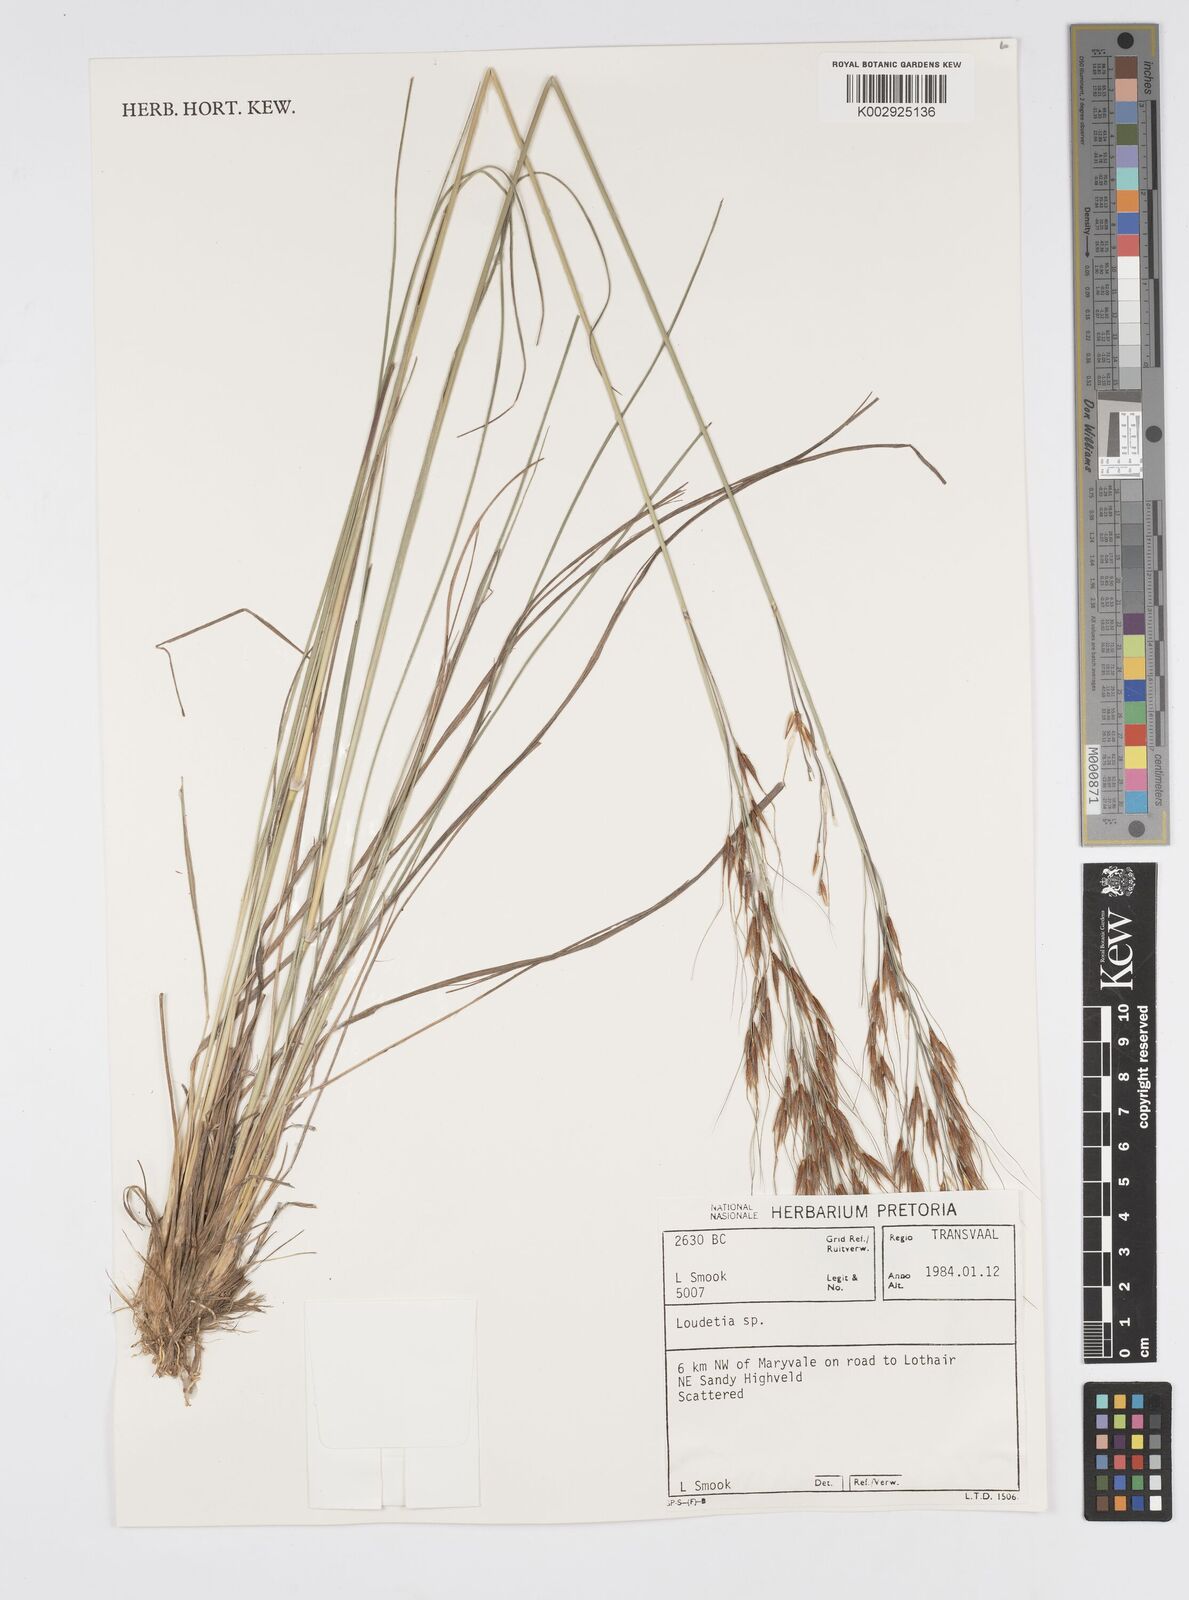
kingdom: Plantae
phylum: Tracheophyta
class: Liliopsida
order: Poales
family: Poaceae
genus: Loudetia
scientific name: Loudetia simplex
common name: Common russet grass
